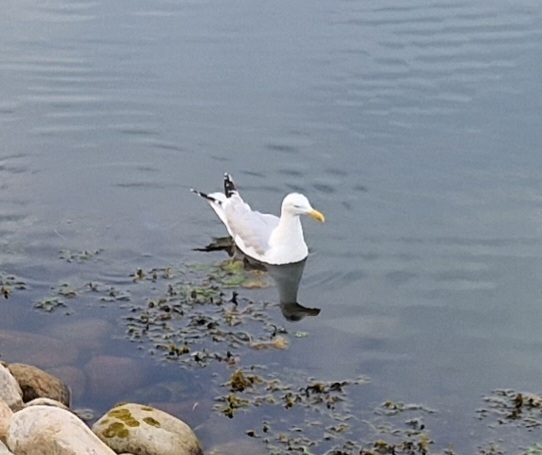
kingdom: Animalia
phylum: Chordata
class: Aves
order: Charadriiformes
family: Laridae
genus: Larus
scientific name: Larus argentatus
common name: Sølvmåge
